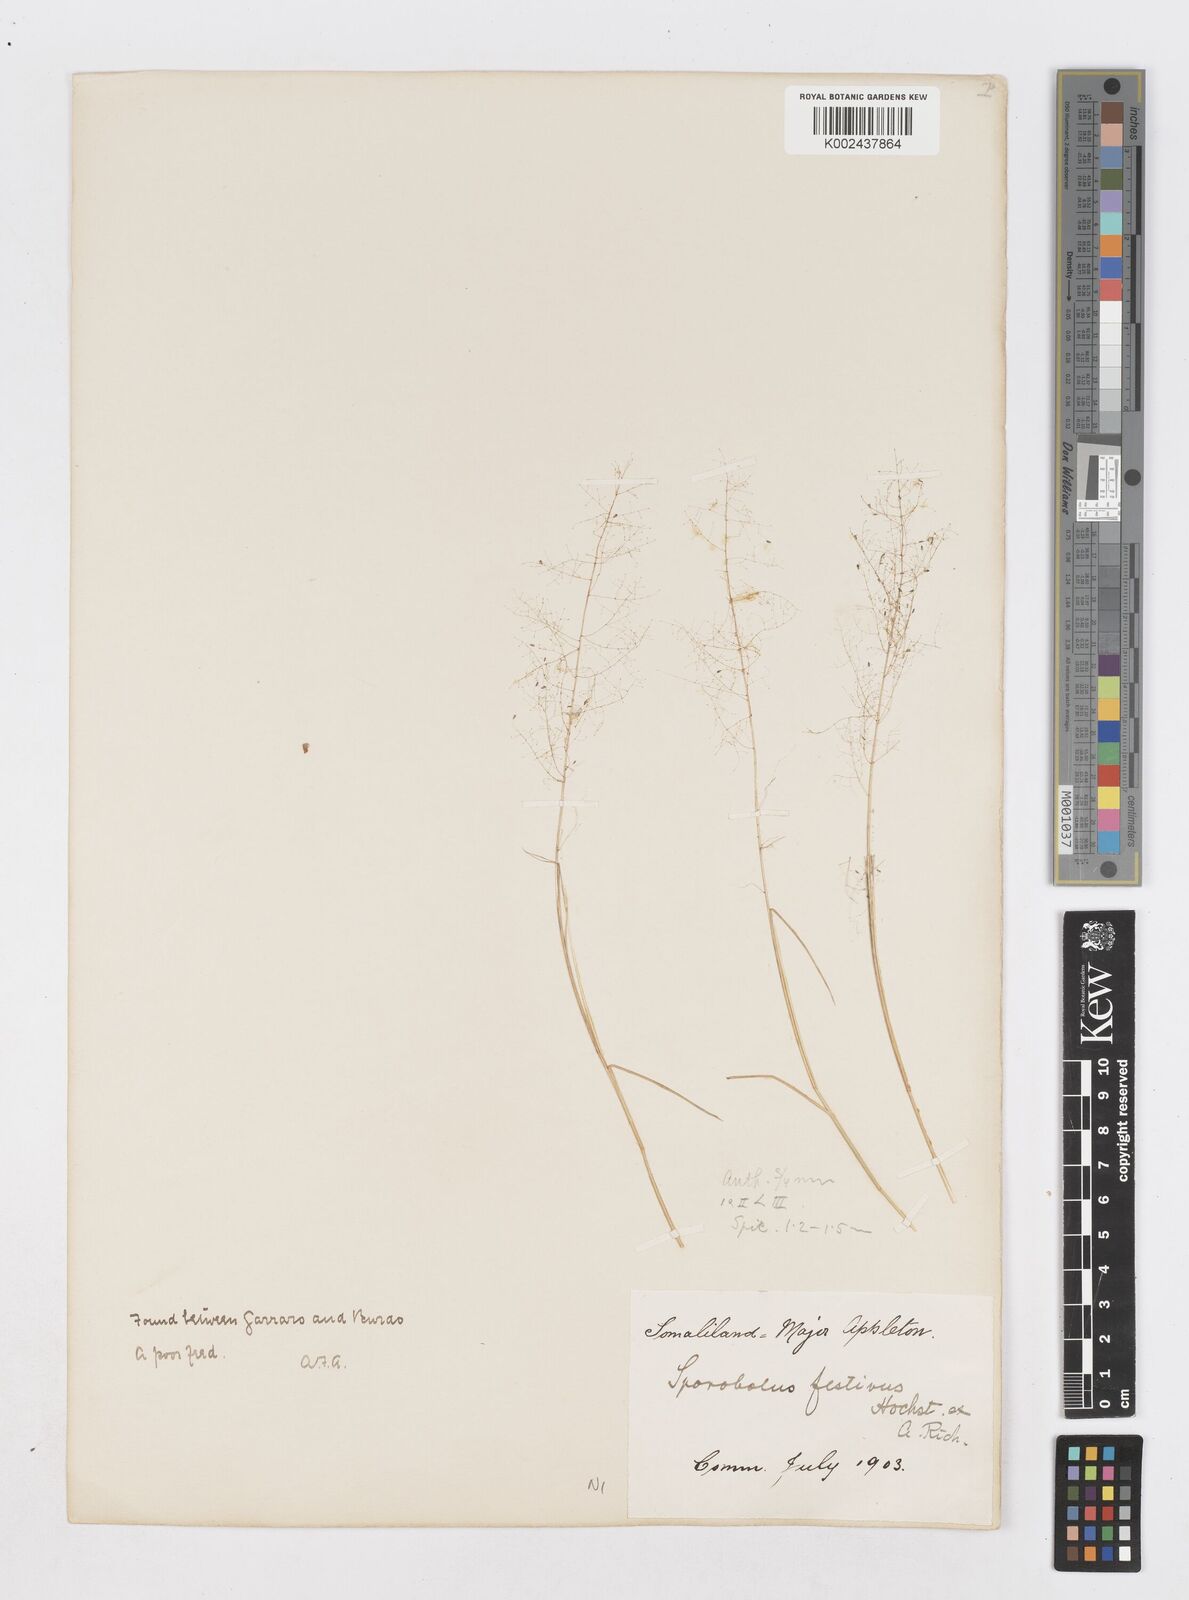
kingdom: Plantae
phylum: Tracheophyta
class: Liliopsida
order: Poales
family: Poaceae
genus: Sporobolus
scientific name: Sporobolus festivus
